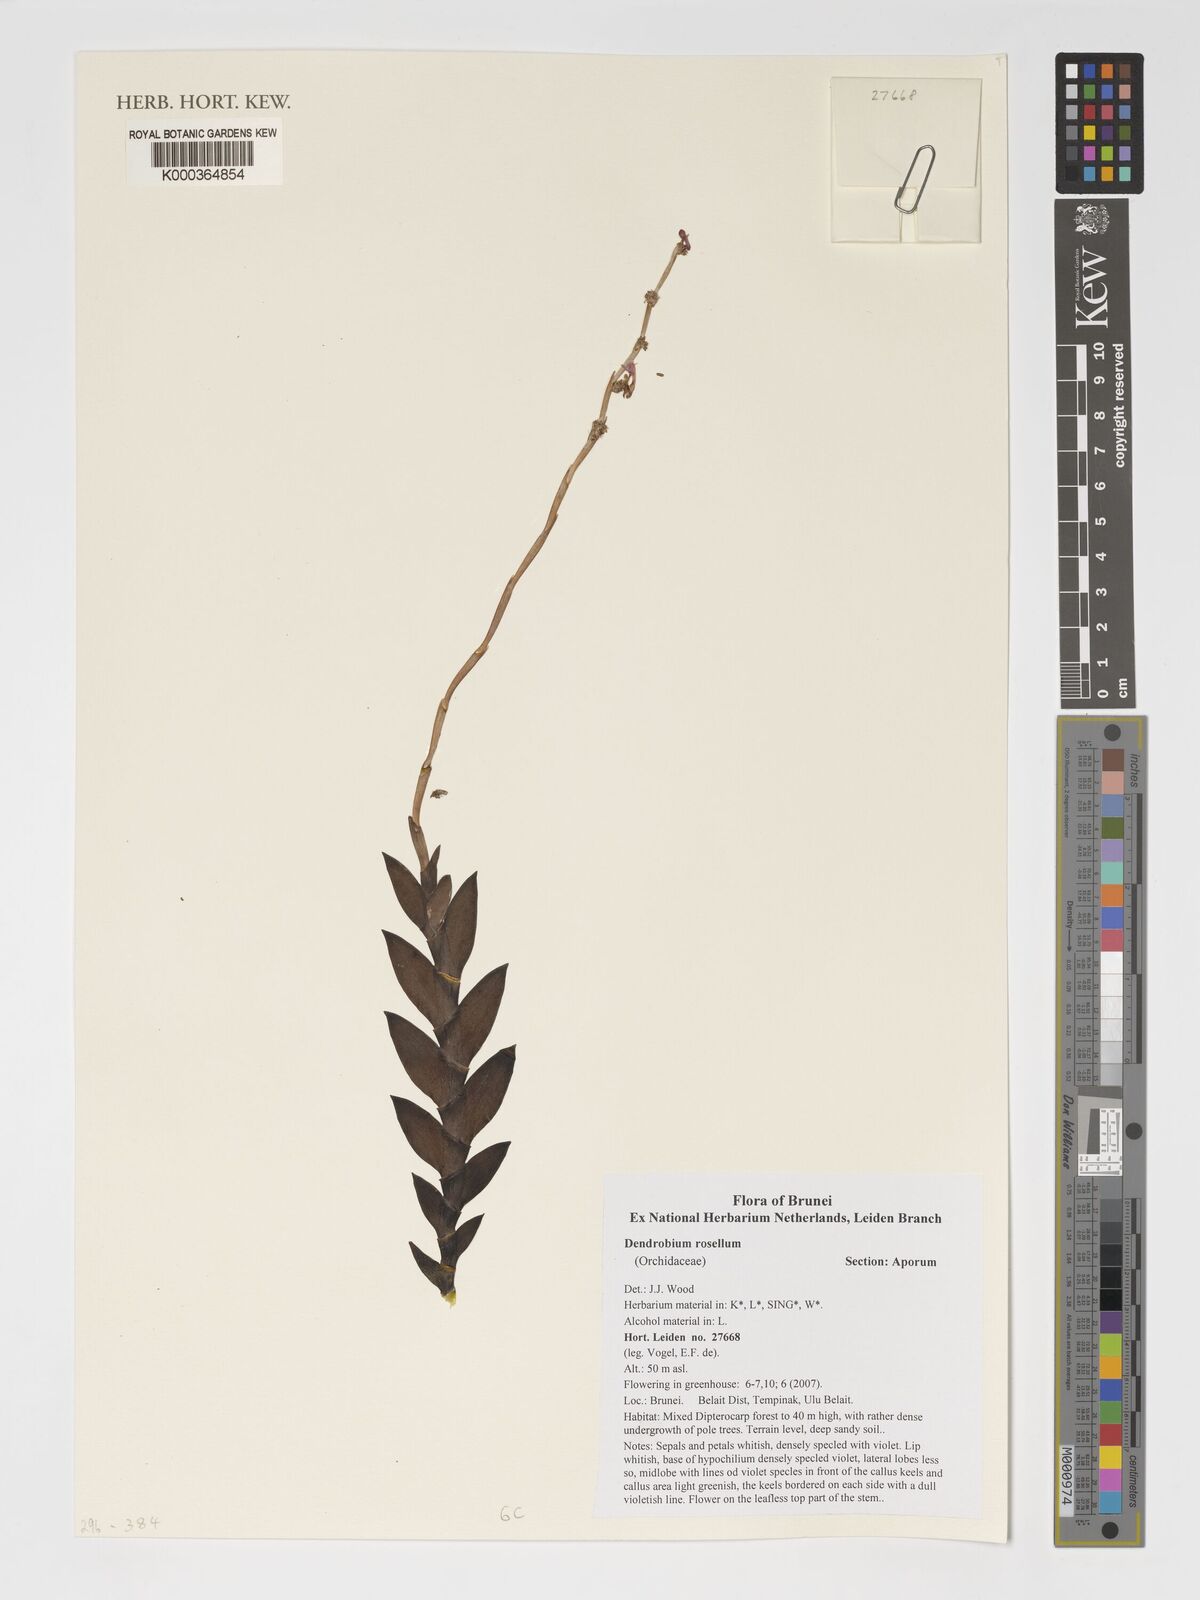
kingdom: Plantae
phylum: Tracheophyta
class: Liliopsida
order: Asparagales
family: Orchidaceae
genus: Dendrobium
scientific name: Dendrobium rosellum
